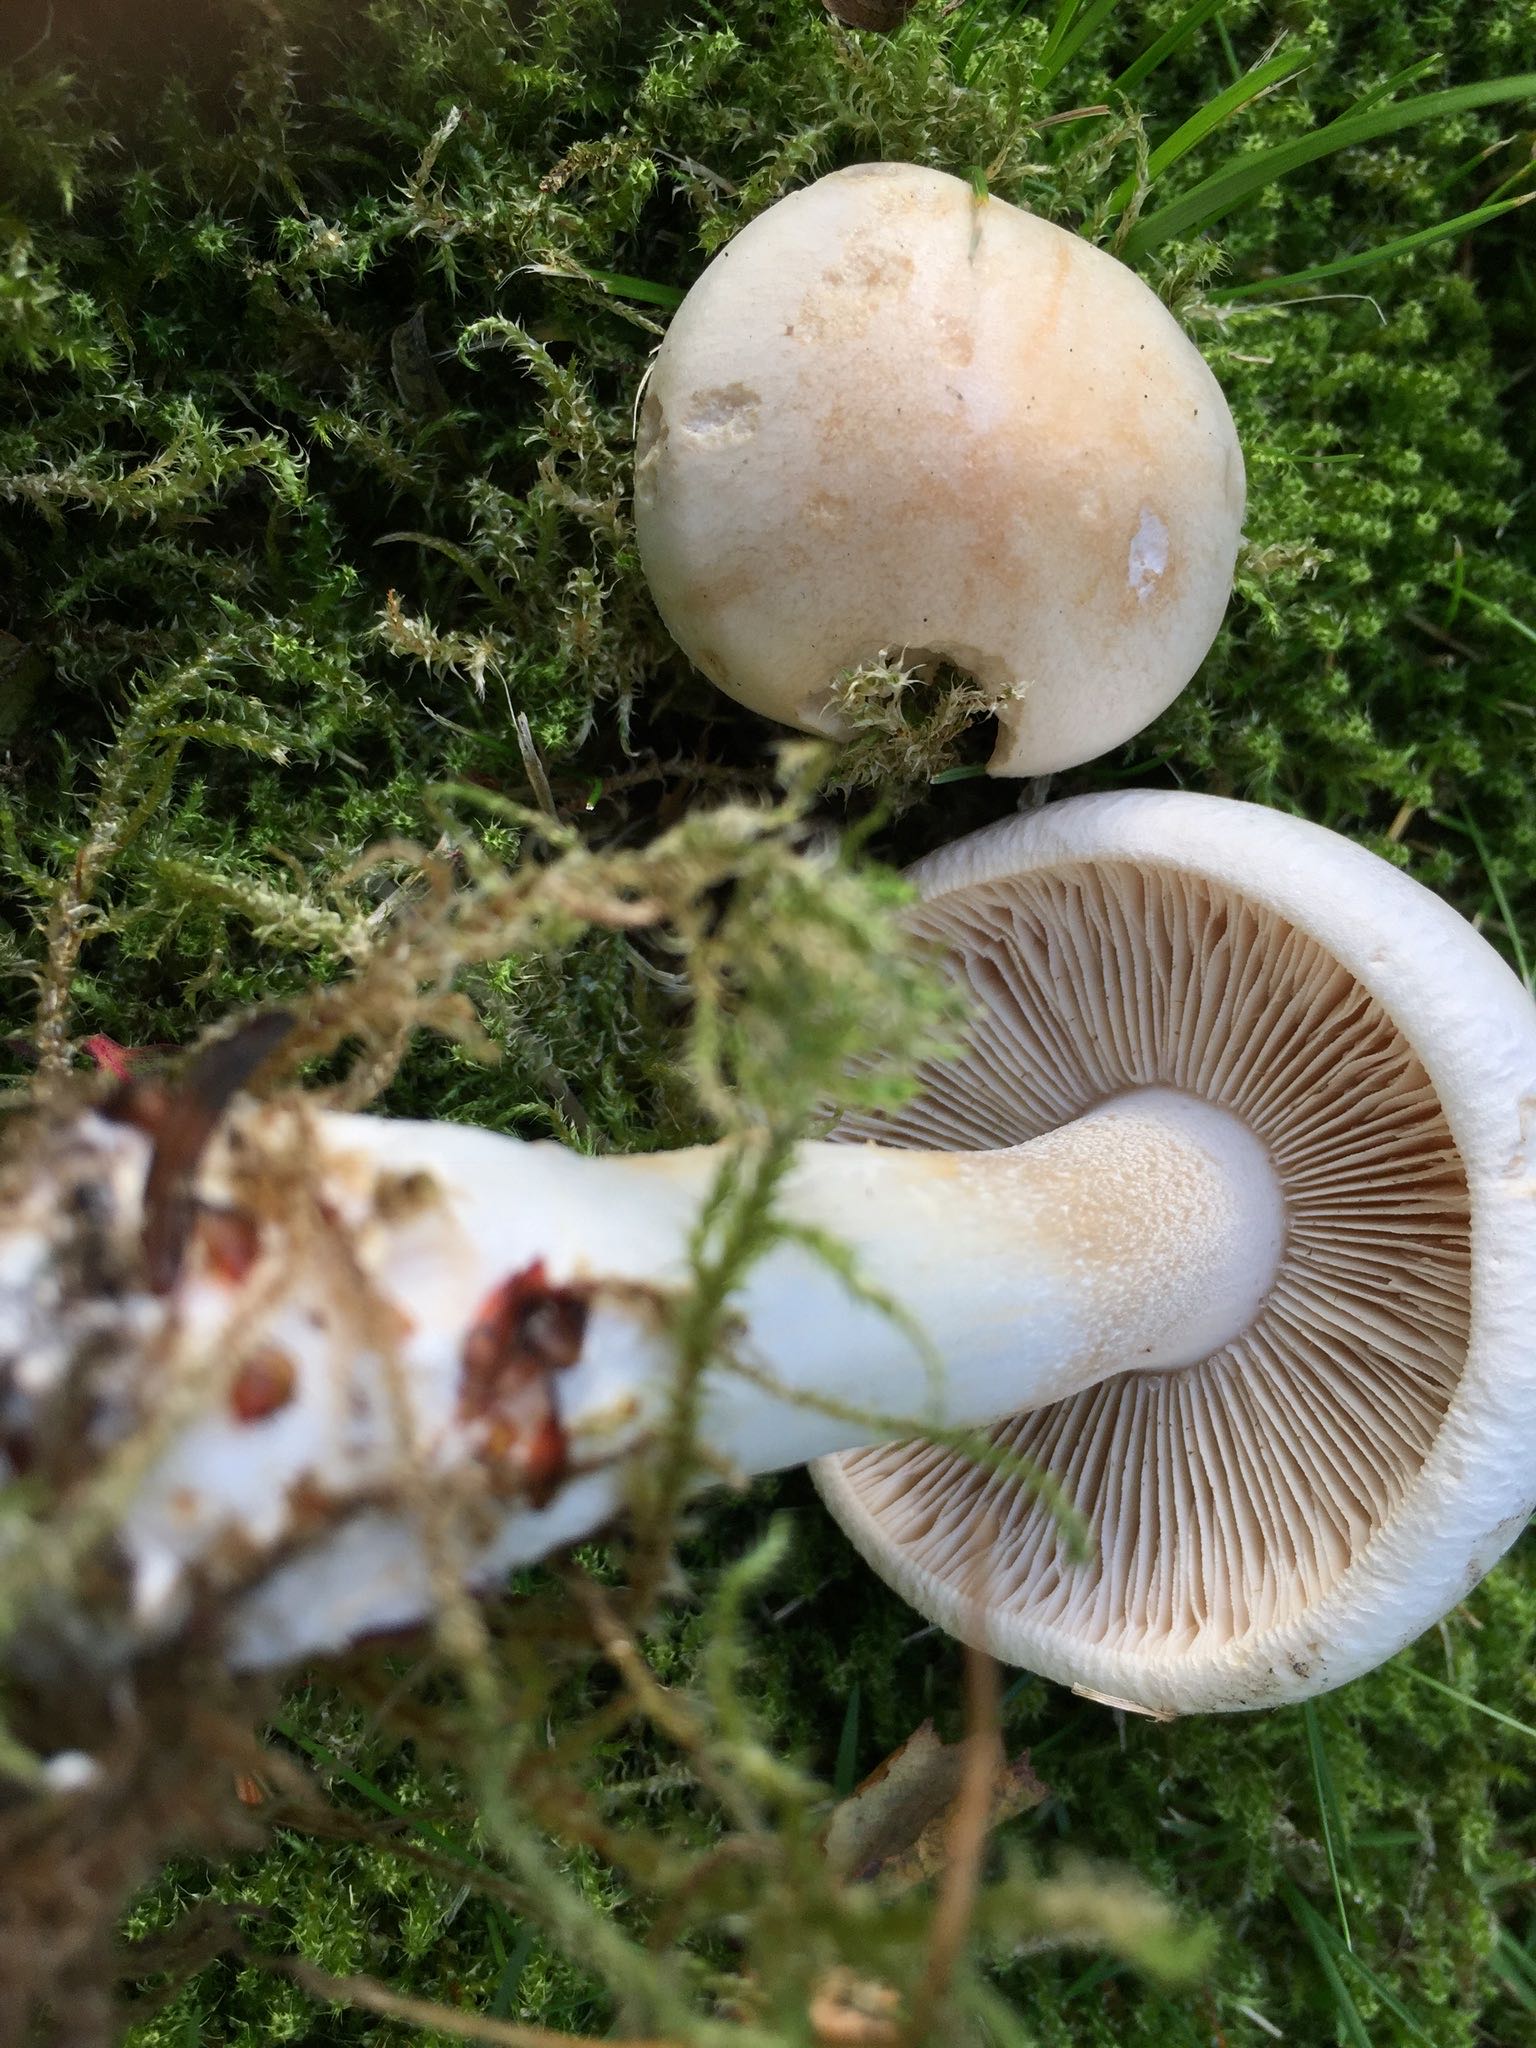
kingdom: Fungi
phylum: Basidiomycota
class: Agaricomycetes
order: Agaricales
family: Hymenogastraceae
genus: Hebeloma
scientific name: Hebeloma
